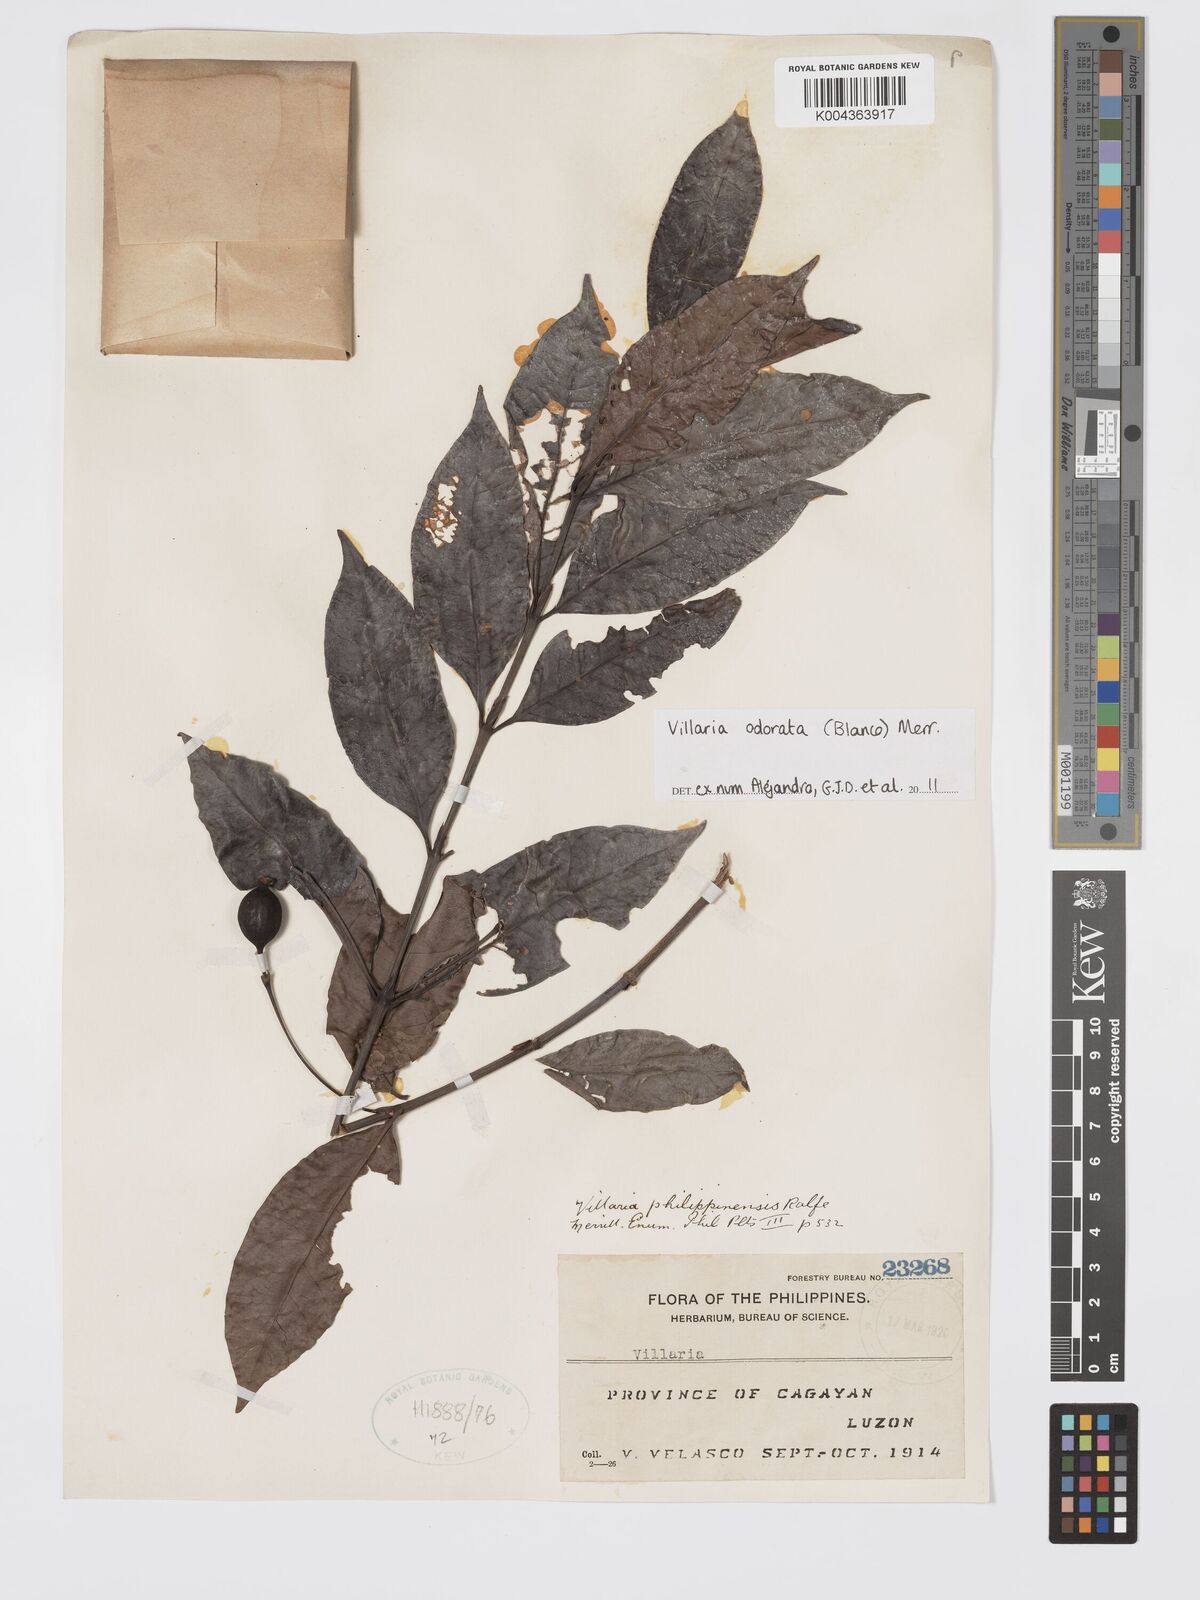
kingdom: Plantae
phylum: Tracheophyta
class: Magnoliopsida
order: Gentianales
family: Rubiaceae
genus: Villaria
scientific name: Villaria odorata
